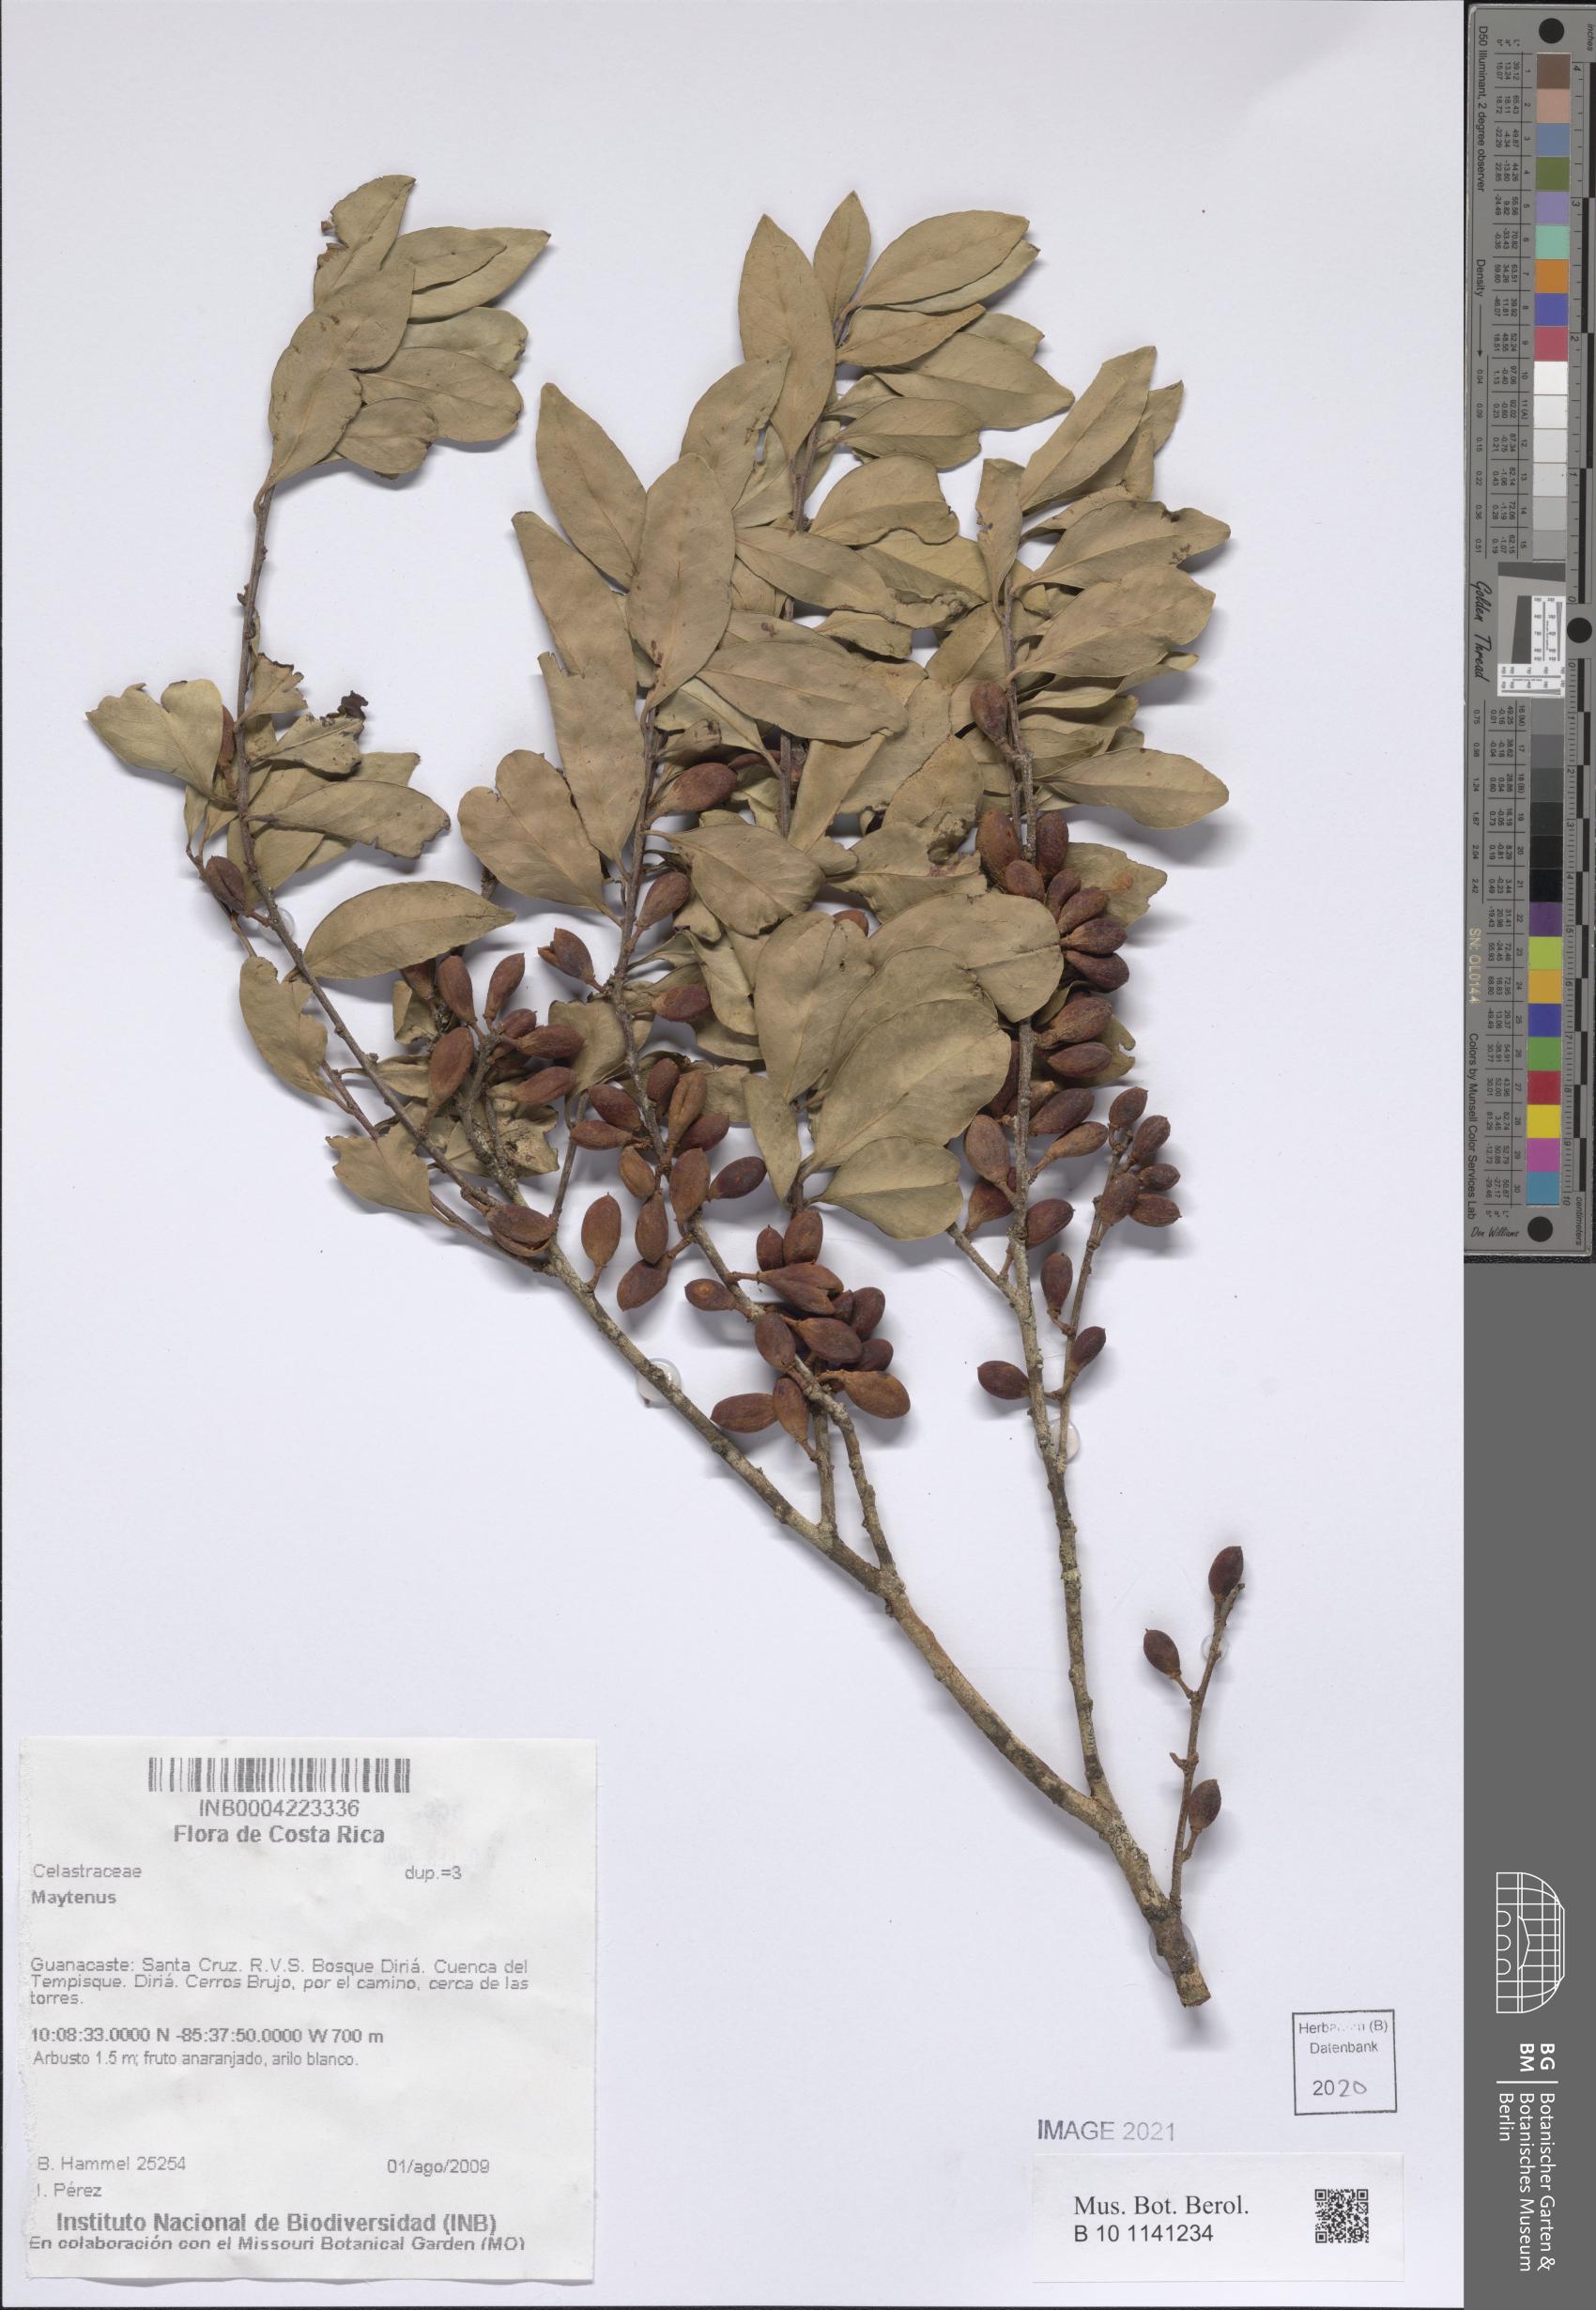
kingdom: Plantae
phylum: Tracheophyta
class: Magnoliopsida
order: Celastrales
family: Celastraceae
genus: Maytenus
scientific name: Maytenus
